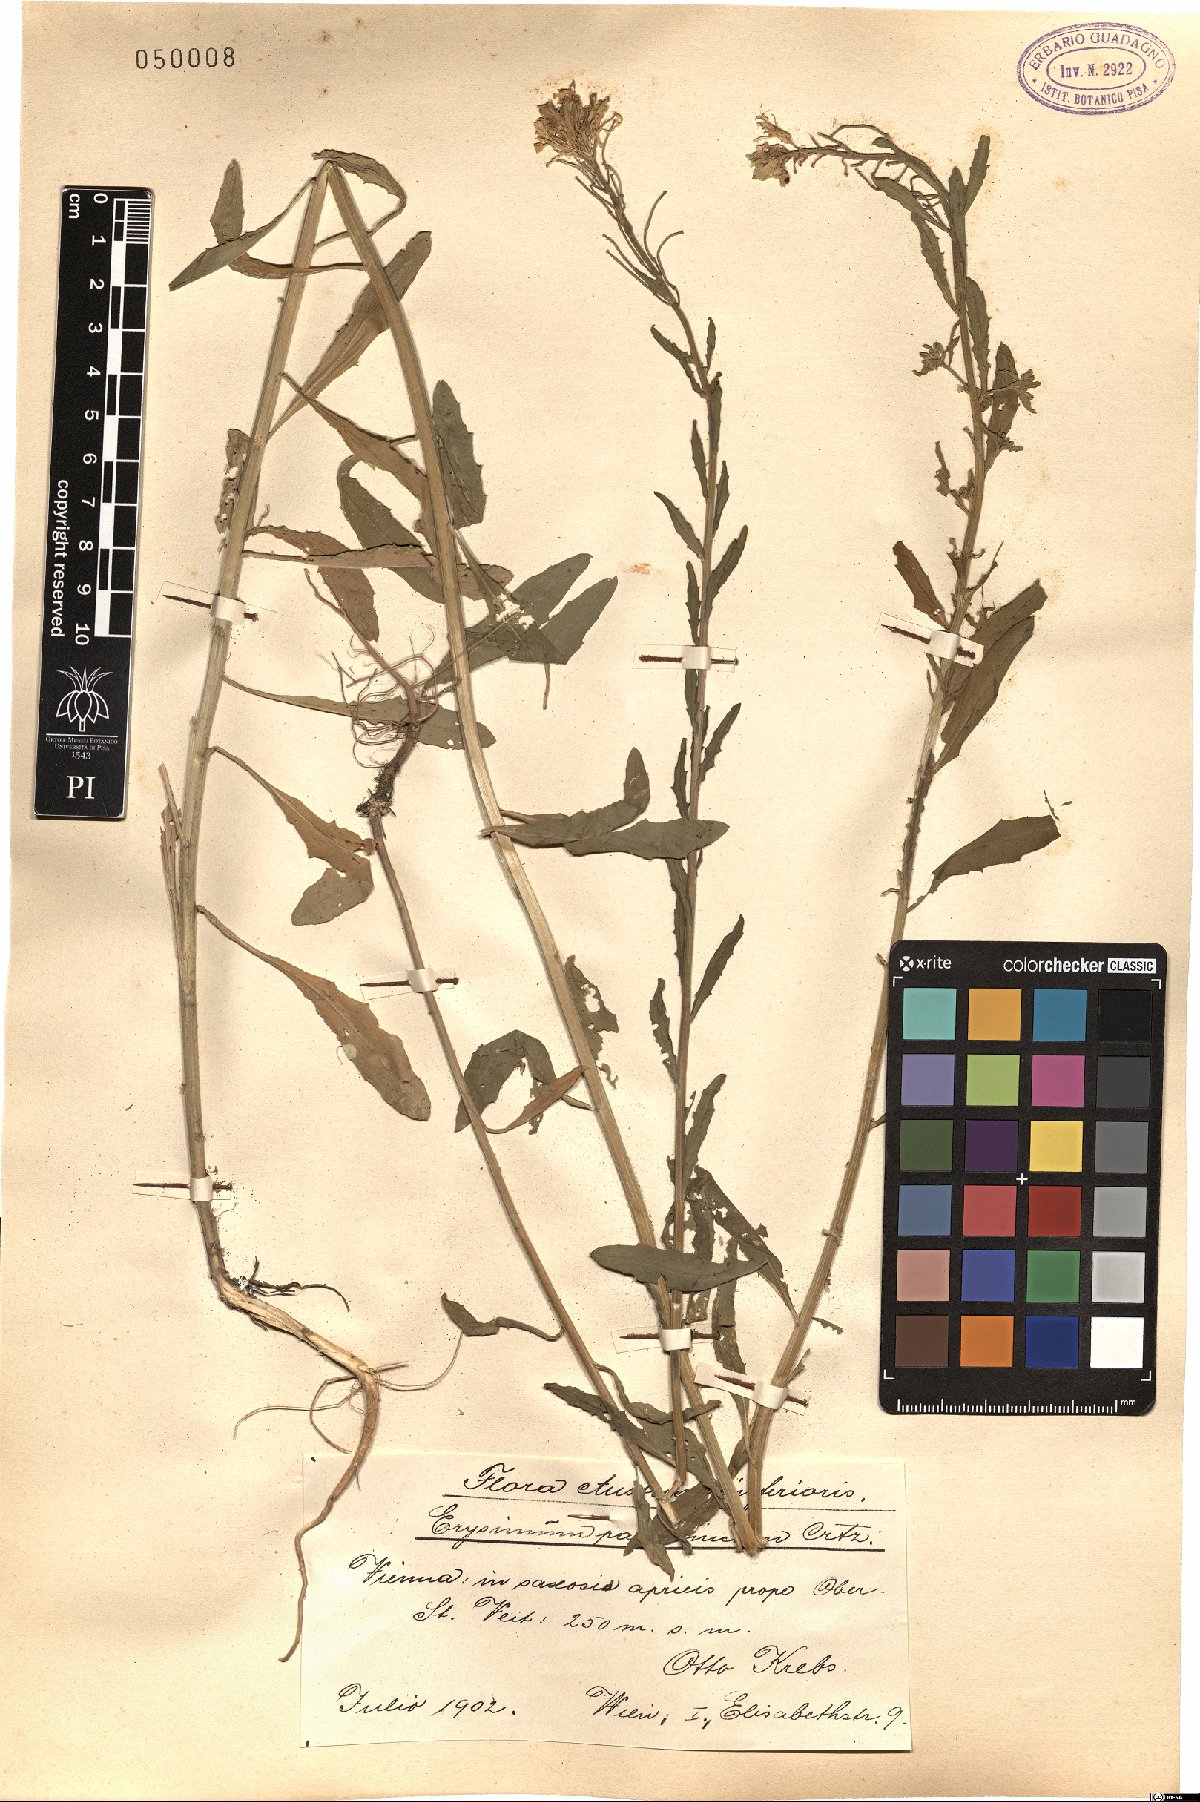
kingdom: Plantae
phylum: Tracheophyta
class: Magnoliopsida
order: Brassicales
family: Brassicaceae
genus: Erysimum
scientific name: Erysimum odoratum
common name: Smelly wallflower
